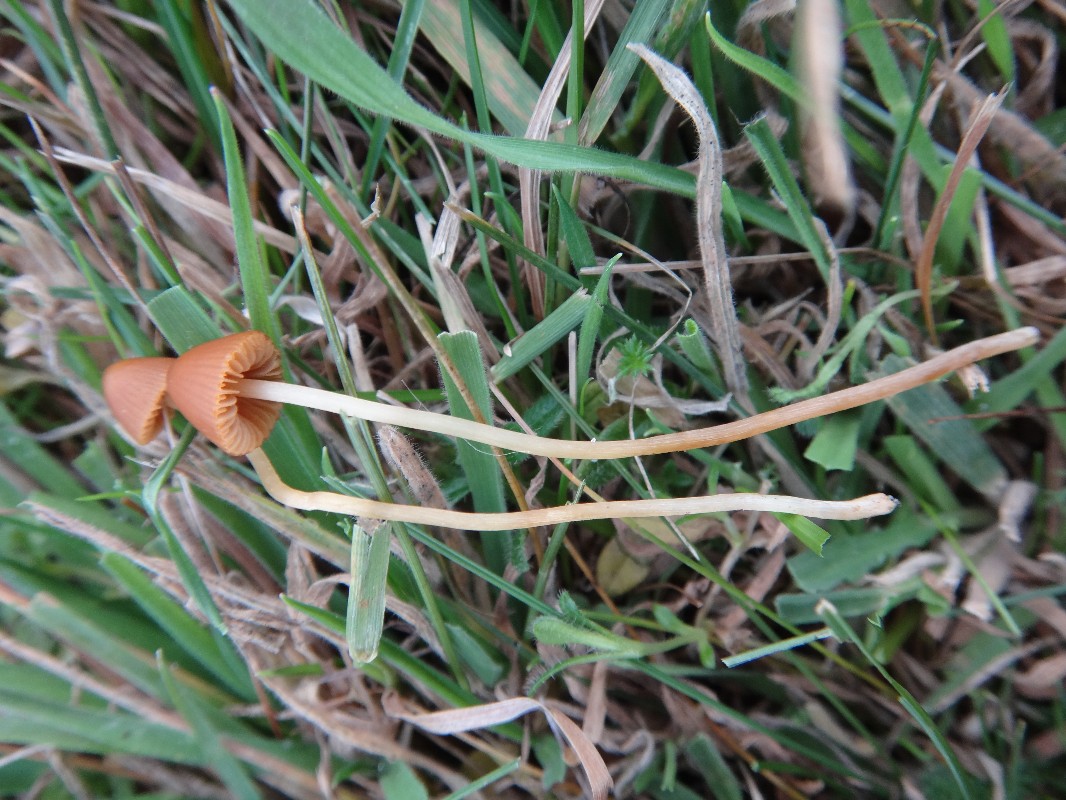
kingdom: Fungi
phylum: Basidiomycota
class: Agaricomycetes
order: Agaricales
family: Bolbitiaceae
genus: Conocybe
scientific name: Conocybe pulchella
